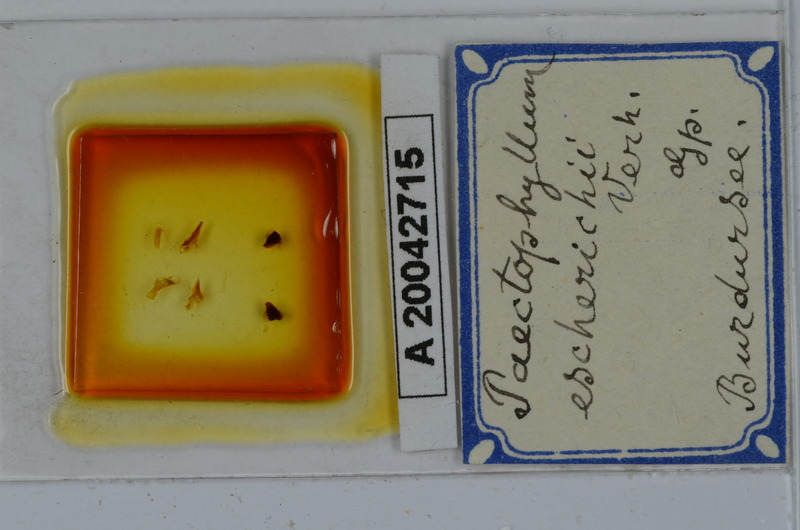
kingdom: Animalia
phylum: Arthropoda
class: Diplopoda
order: Julida
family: Julidae
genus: Paectophyllum
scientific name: Paectophyllum escherichii
